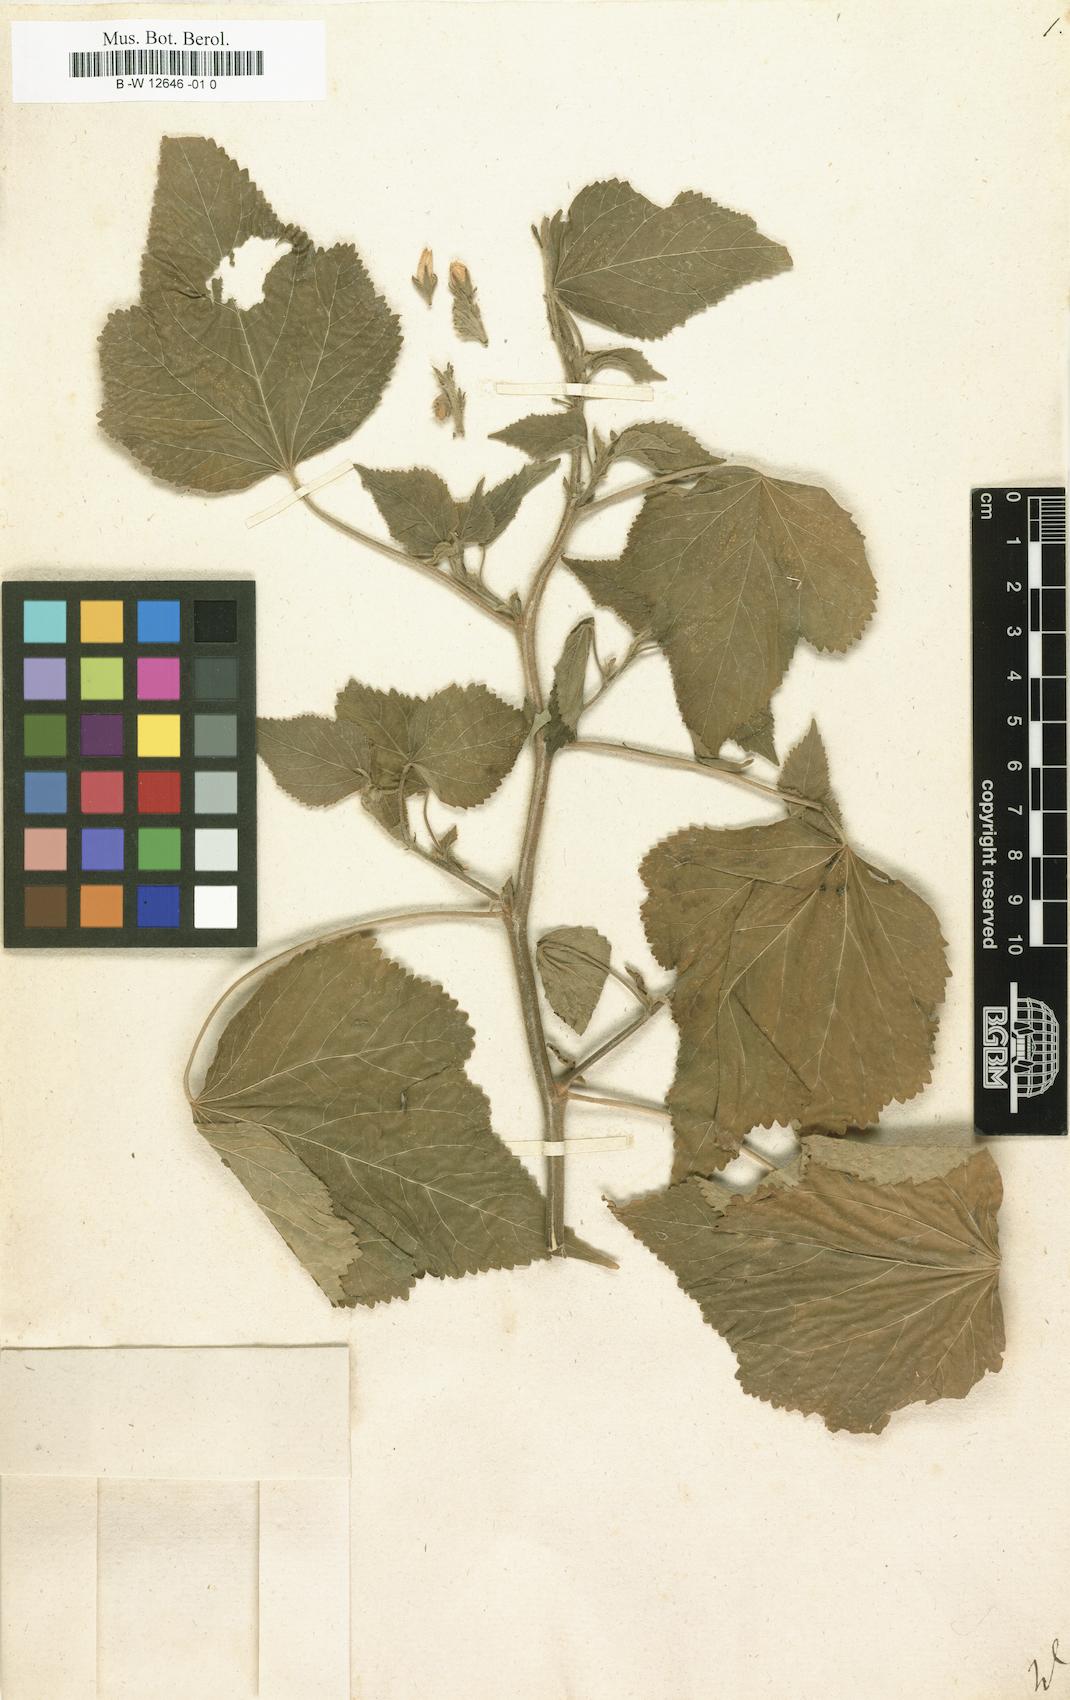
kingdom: Plantae
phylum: Tracheophyta
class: Magnoliopsida
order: Malvales
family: Malvaceae
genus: Lagunaea
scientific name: Lagunaea
